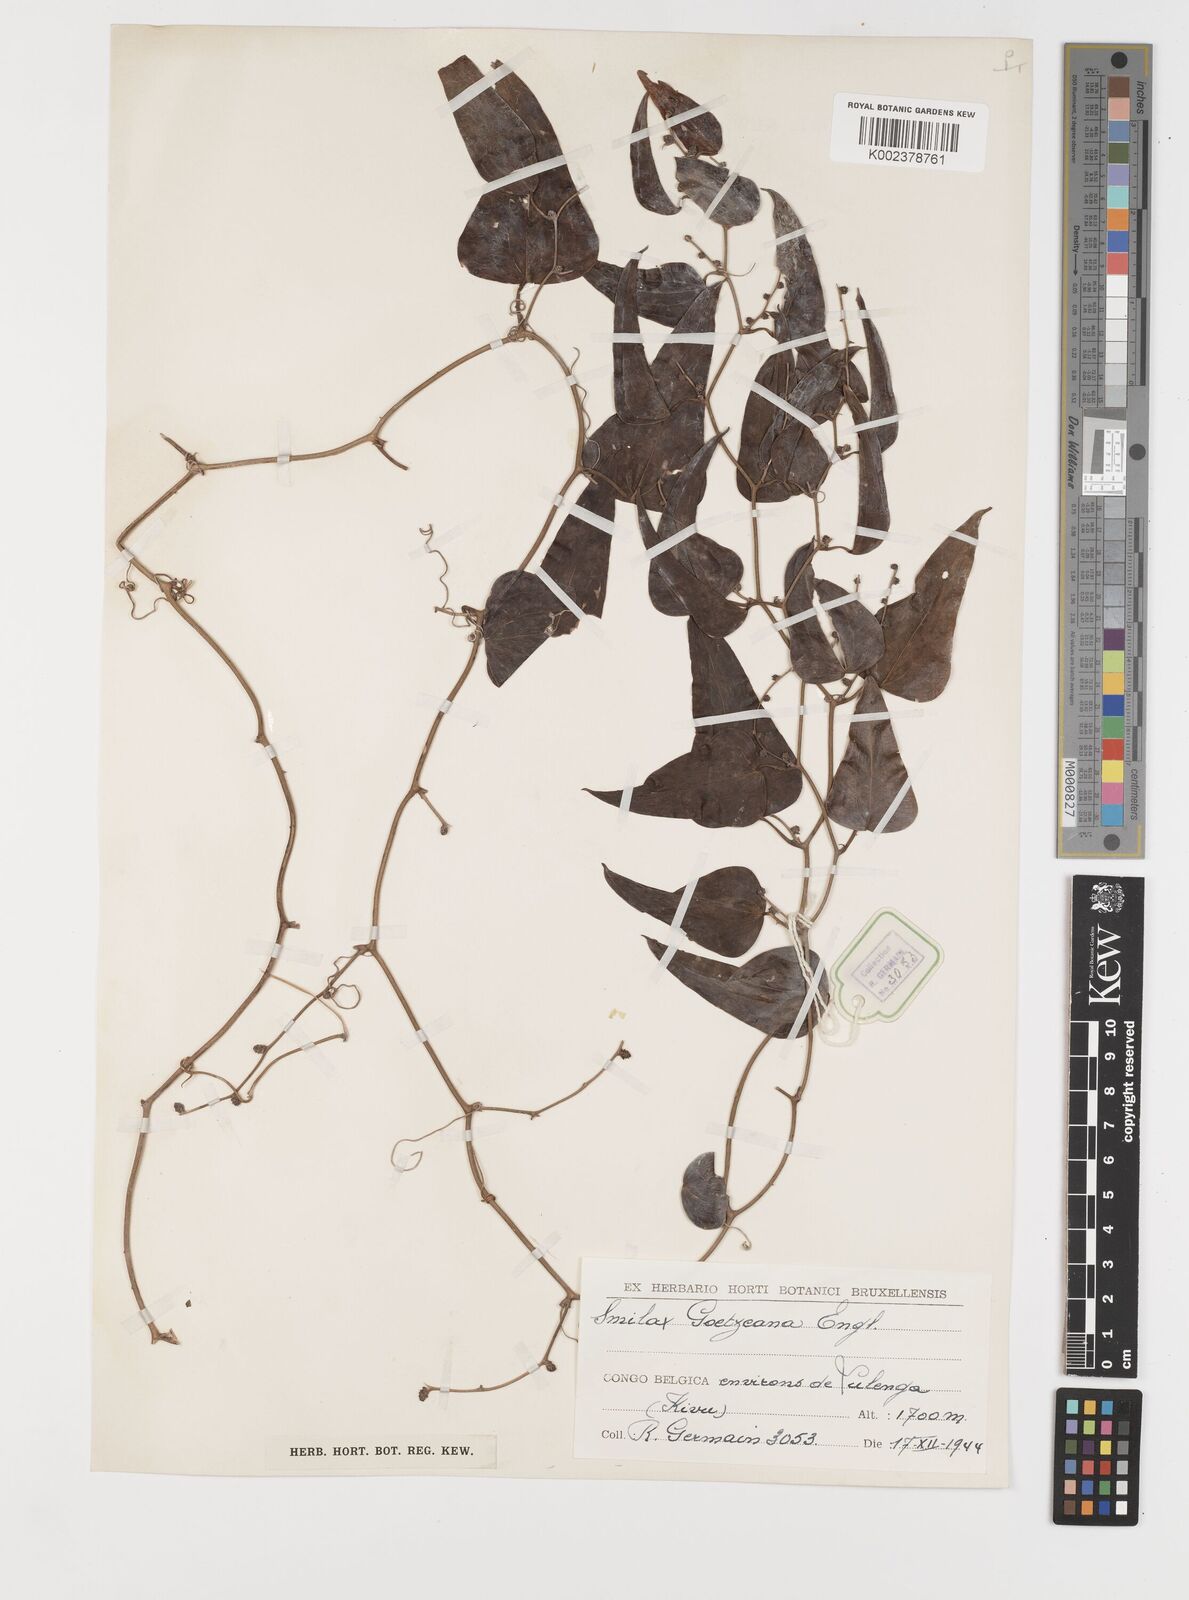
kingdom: Plantae
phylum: Tracheophyta
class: Liliopsida
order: Liliales
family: Smilacaceae
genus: Smilax
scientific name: Smilax aspera
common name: Common smilax
